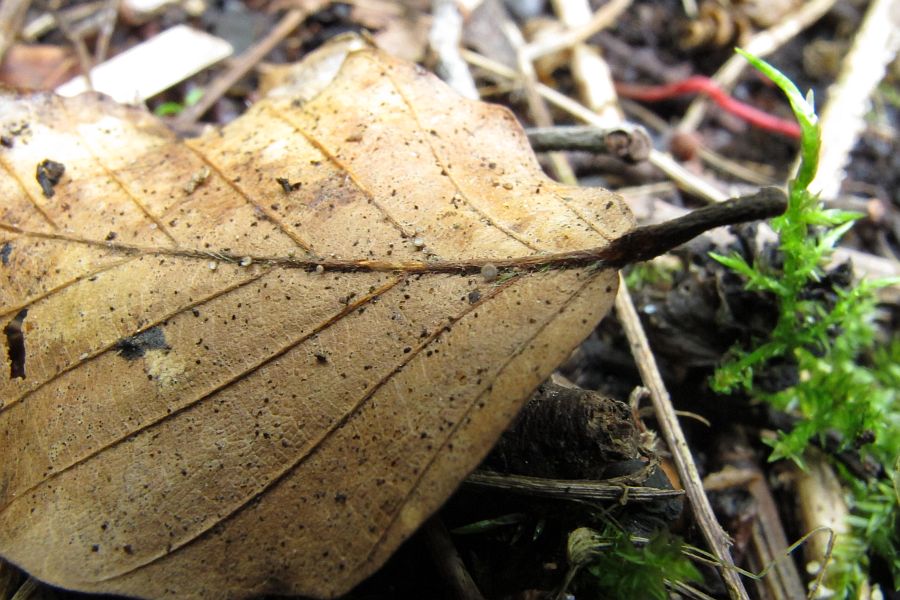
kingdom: Fungi
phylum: Ascomycota
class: Leotiomycetes
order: Helotiales
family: Lachnaceae
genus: Brunnipila
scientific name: Brunnipila fuscescens
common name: bøge-frynseskive
